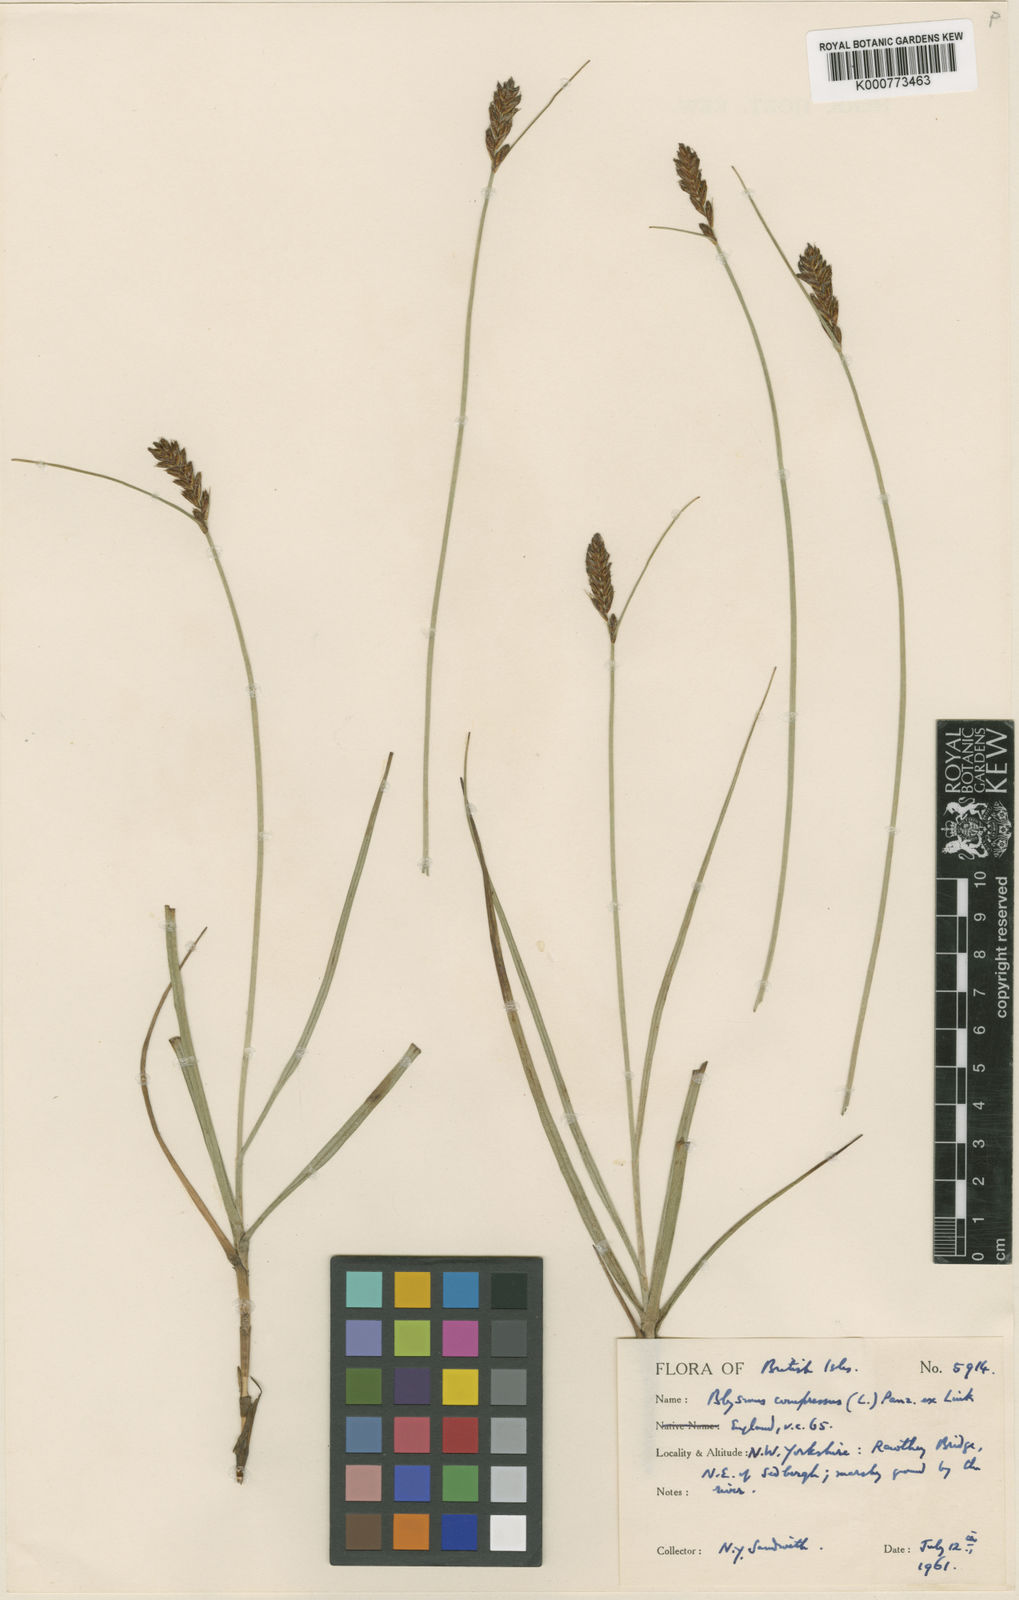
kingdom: Plantae
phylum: Tracheophyta
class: Liliopsida
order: Poales
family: Cyperaceae
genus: Blysmus
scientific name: Blysmus compressus
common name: Flat-sedge
